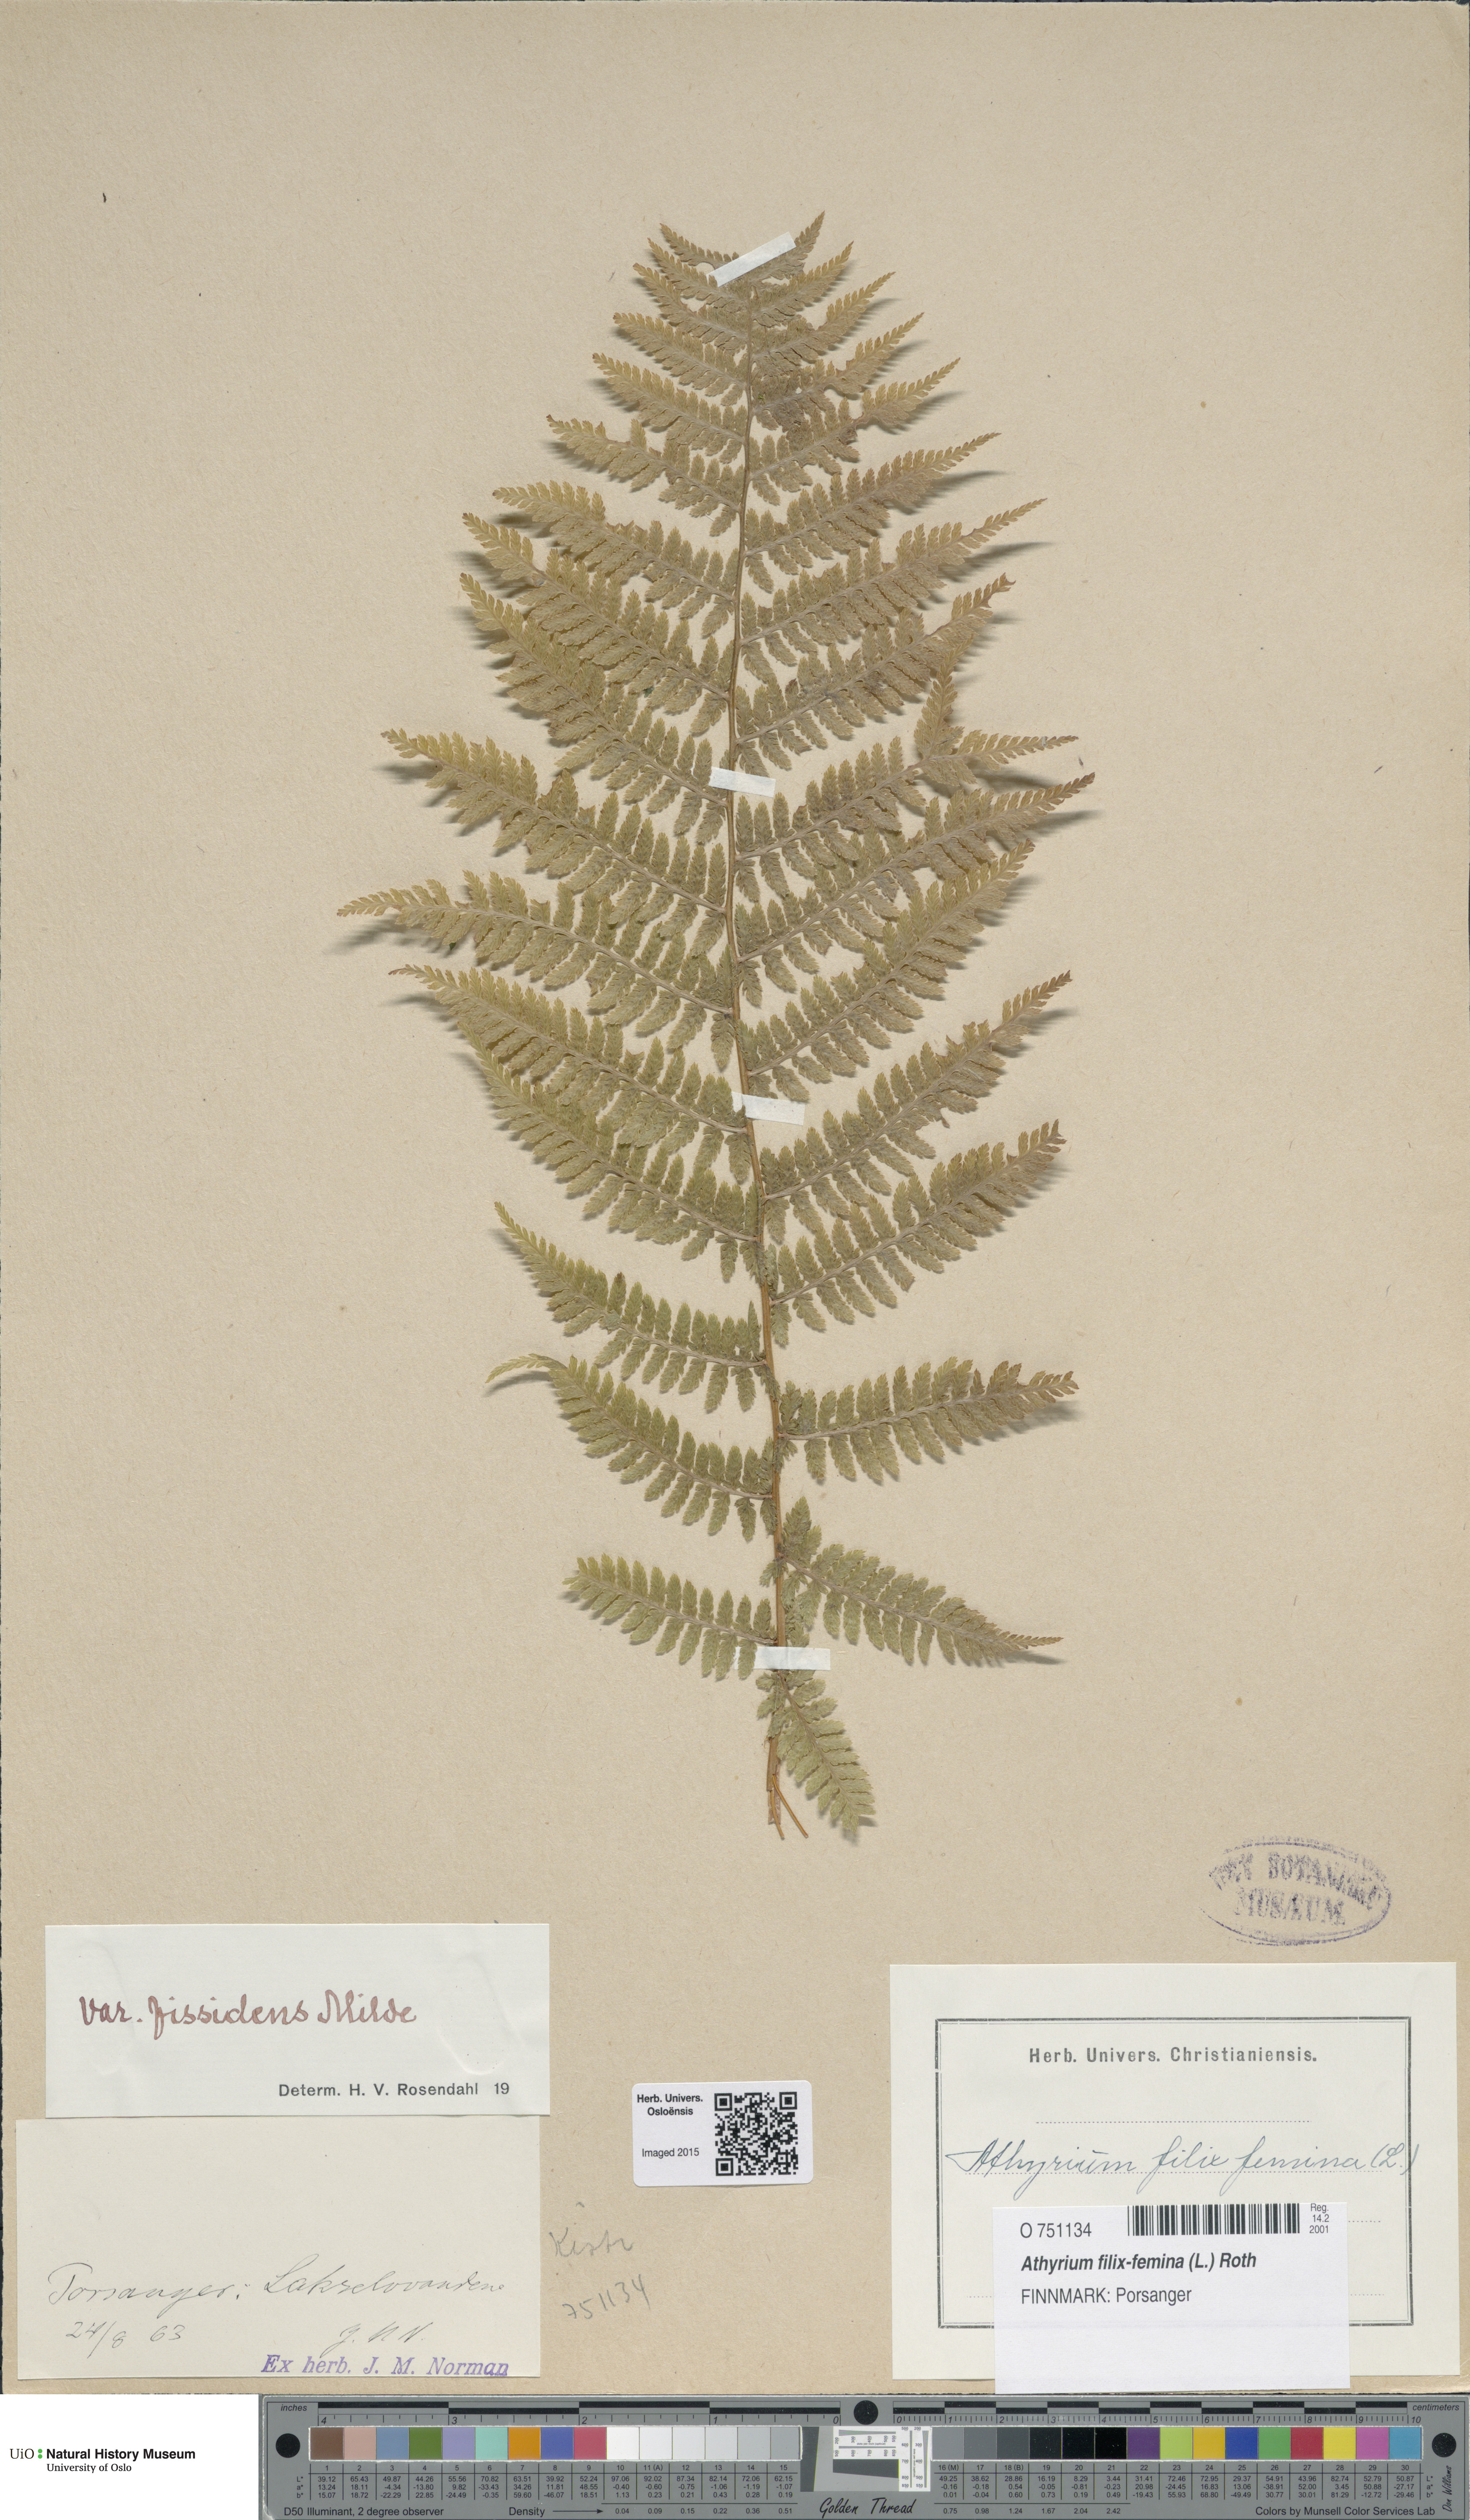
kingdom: Plantae
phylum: Tracheophyta
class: Polypodiopsida
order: Polypodiales
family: Athyriaceae
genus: Athyrium
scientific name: Athyrium filix-femina
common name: Lady fern
